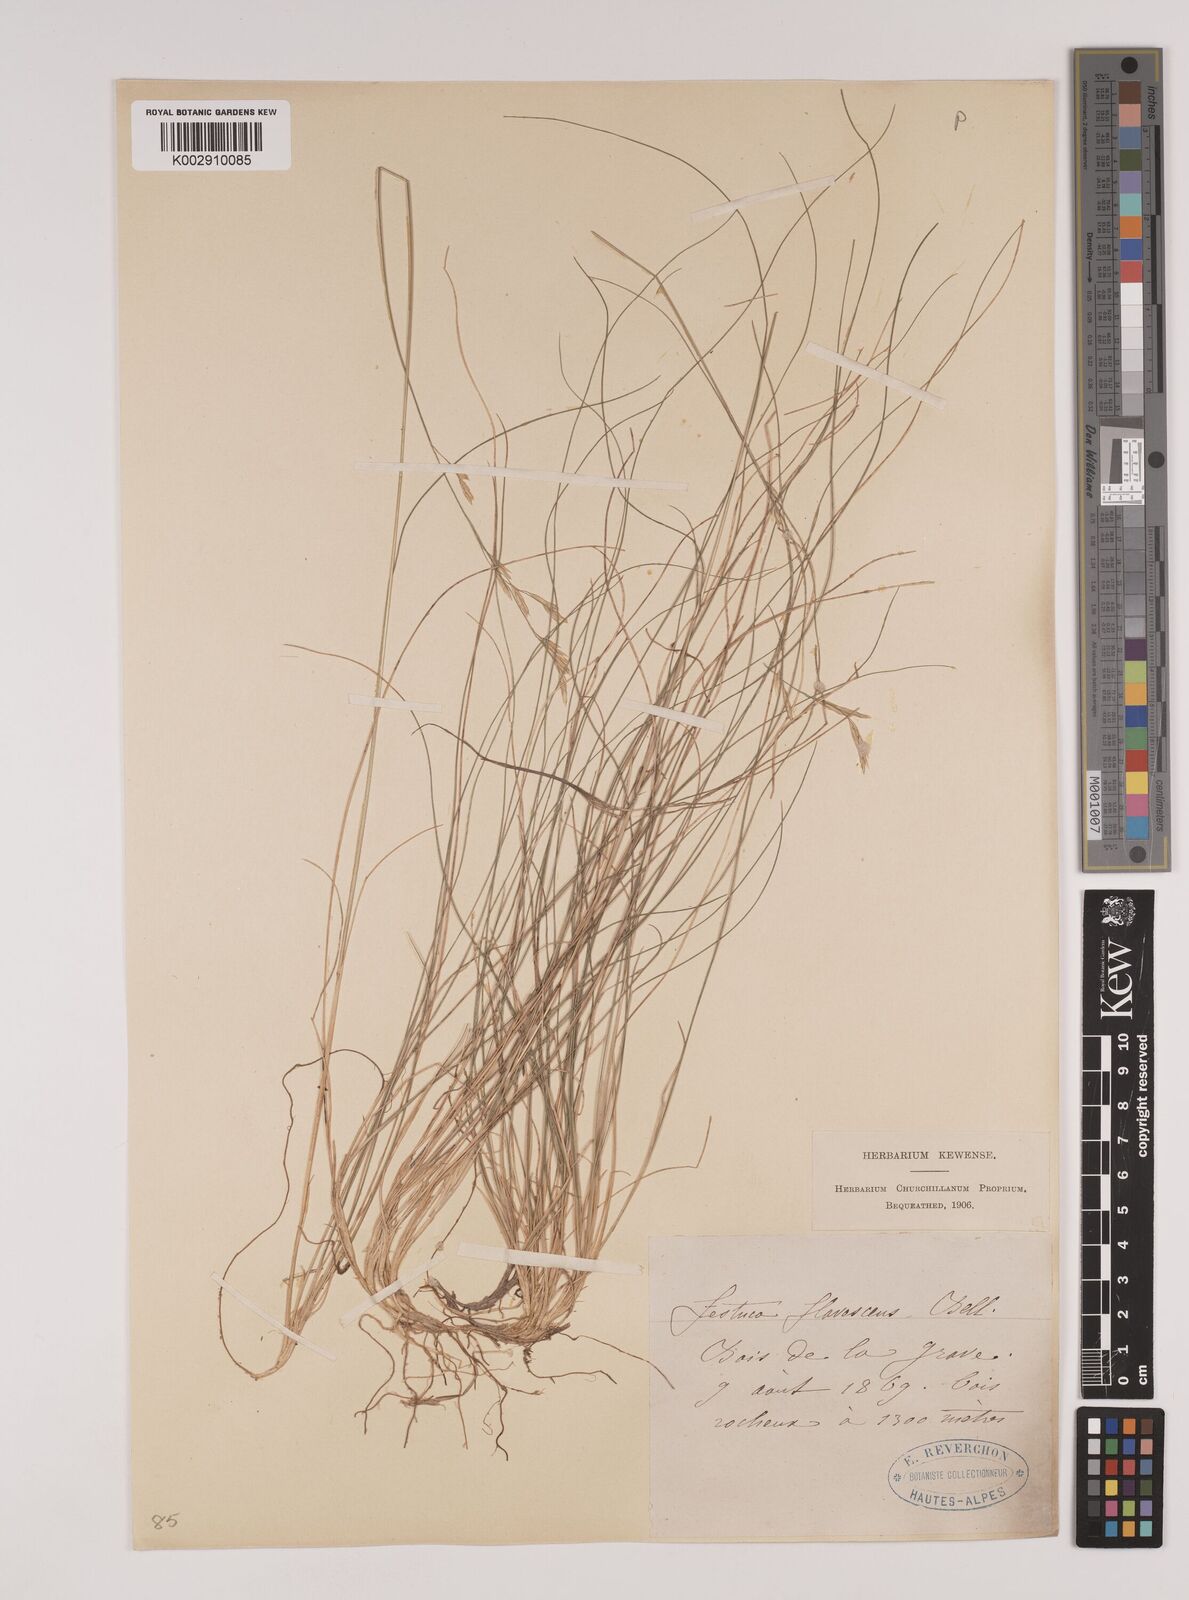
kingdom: Plantae
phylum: Tracheophyta
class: Liliopsida
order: Poales
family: Poaceae
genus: Festuca
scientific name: Festuca flavescens
